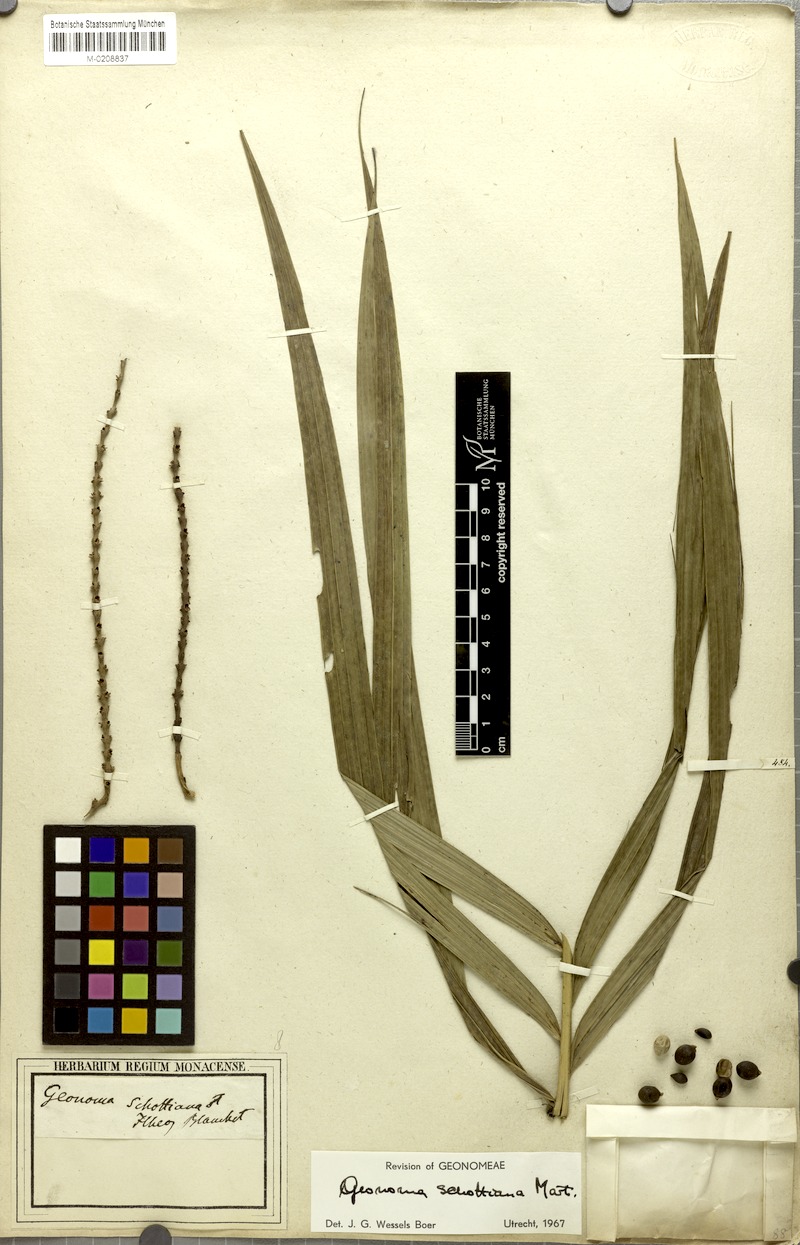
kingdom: Plantae
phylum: Tracheophyta
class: Liliopsida
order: Arecales
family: Arecaceae
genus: Geonoma
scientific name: Geonoma schottiana
